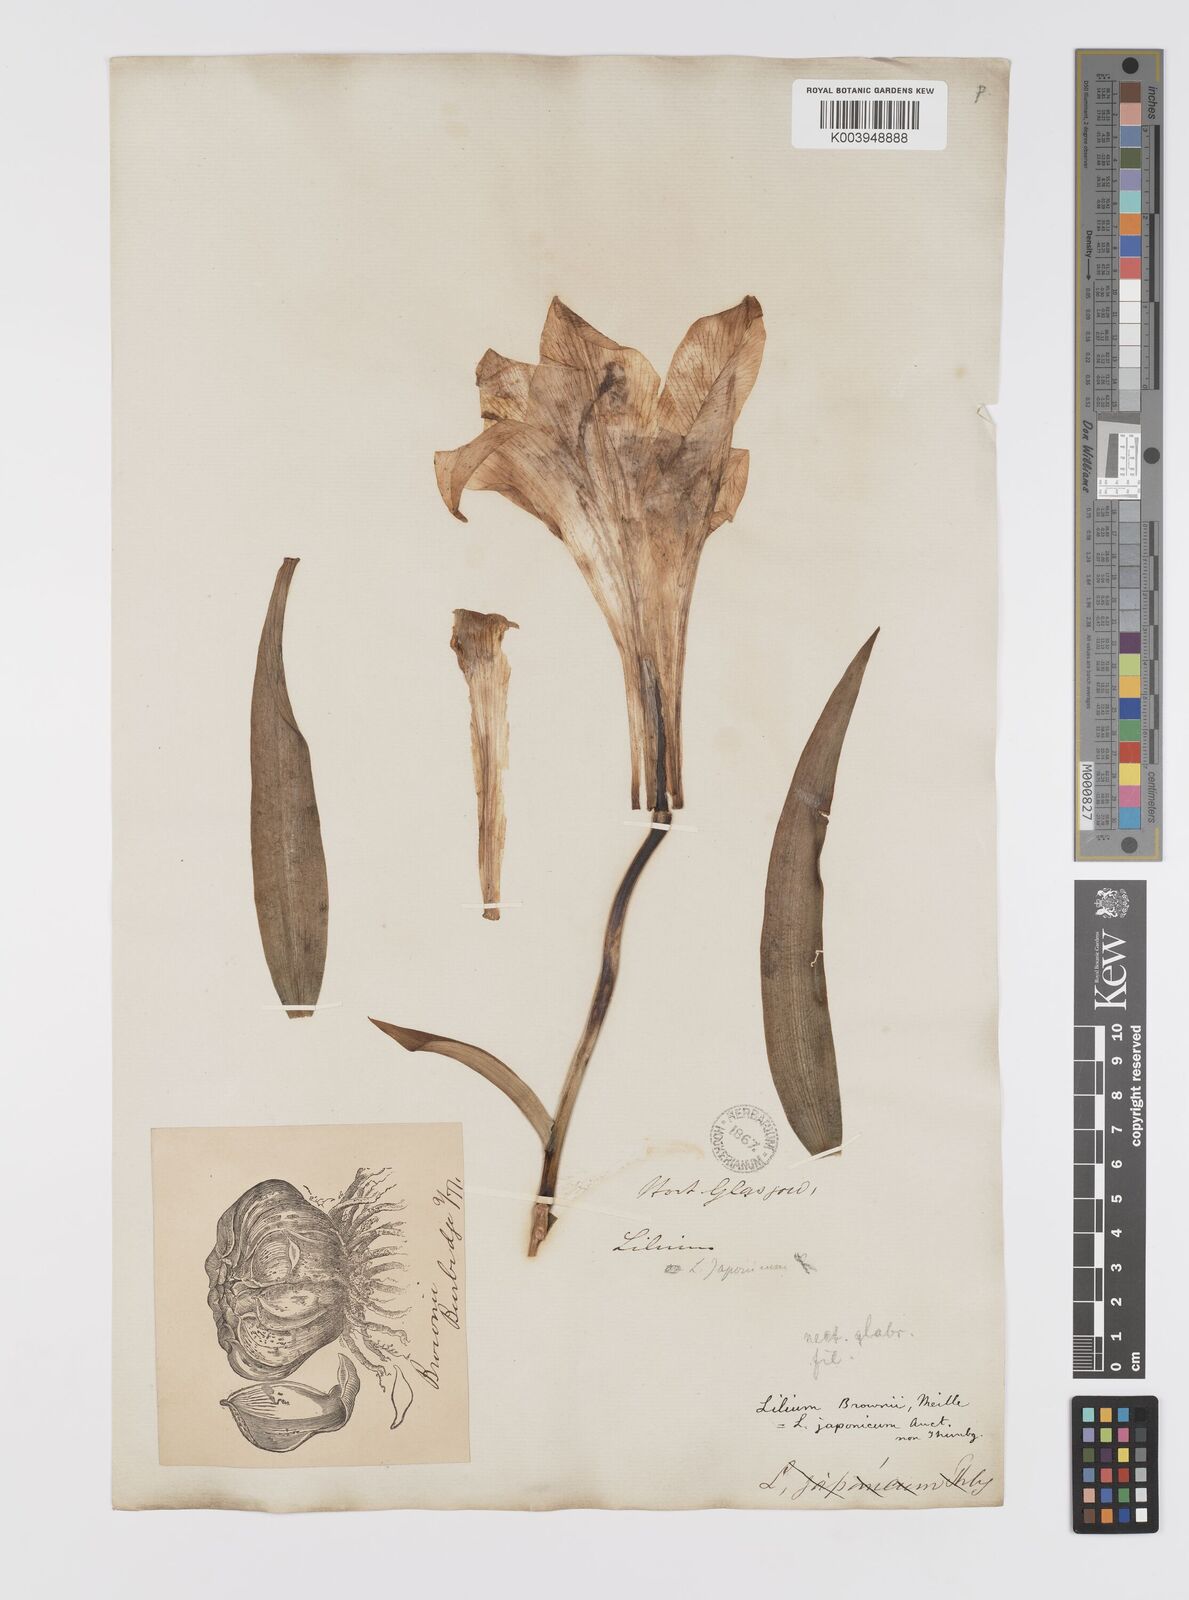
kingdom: Plantae
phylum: Tracheophyta
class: Liliopsida
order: Liliales
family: Liliaceae
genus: Lilium
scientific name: Lilium longiflorum
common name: Easter lily
